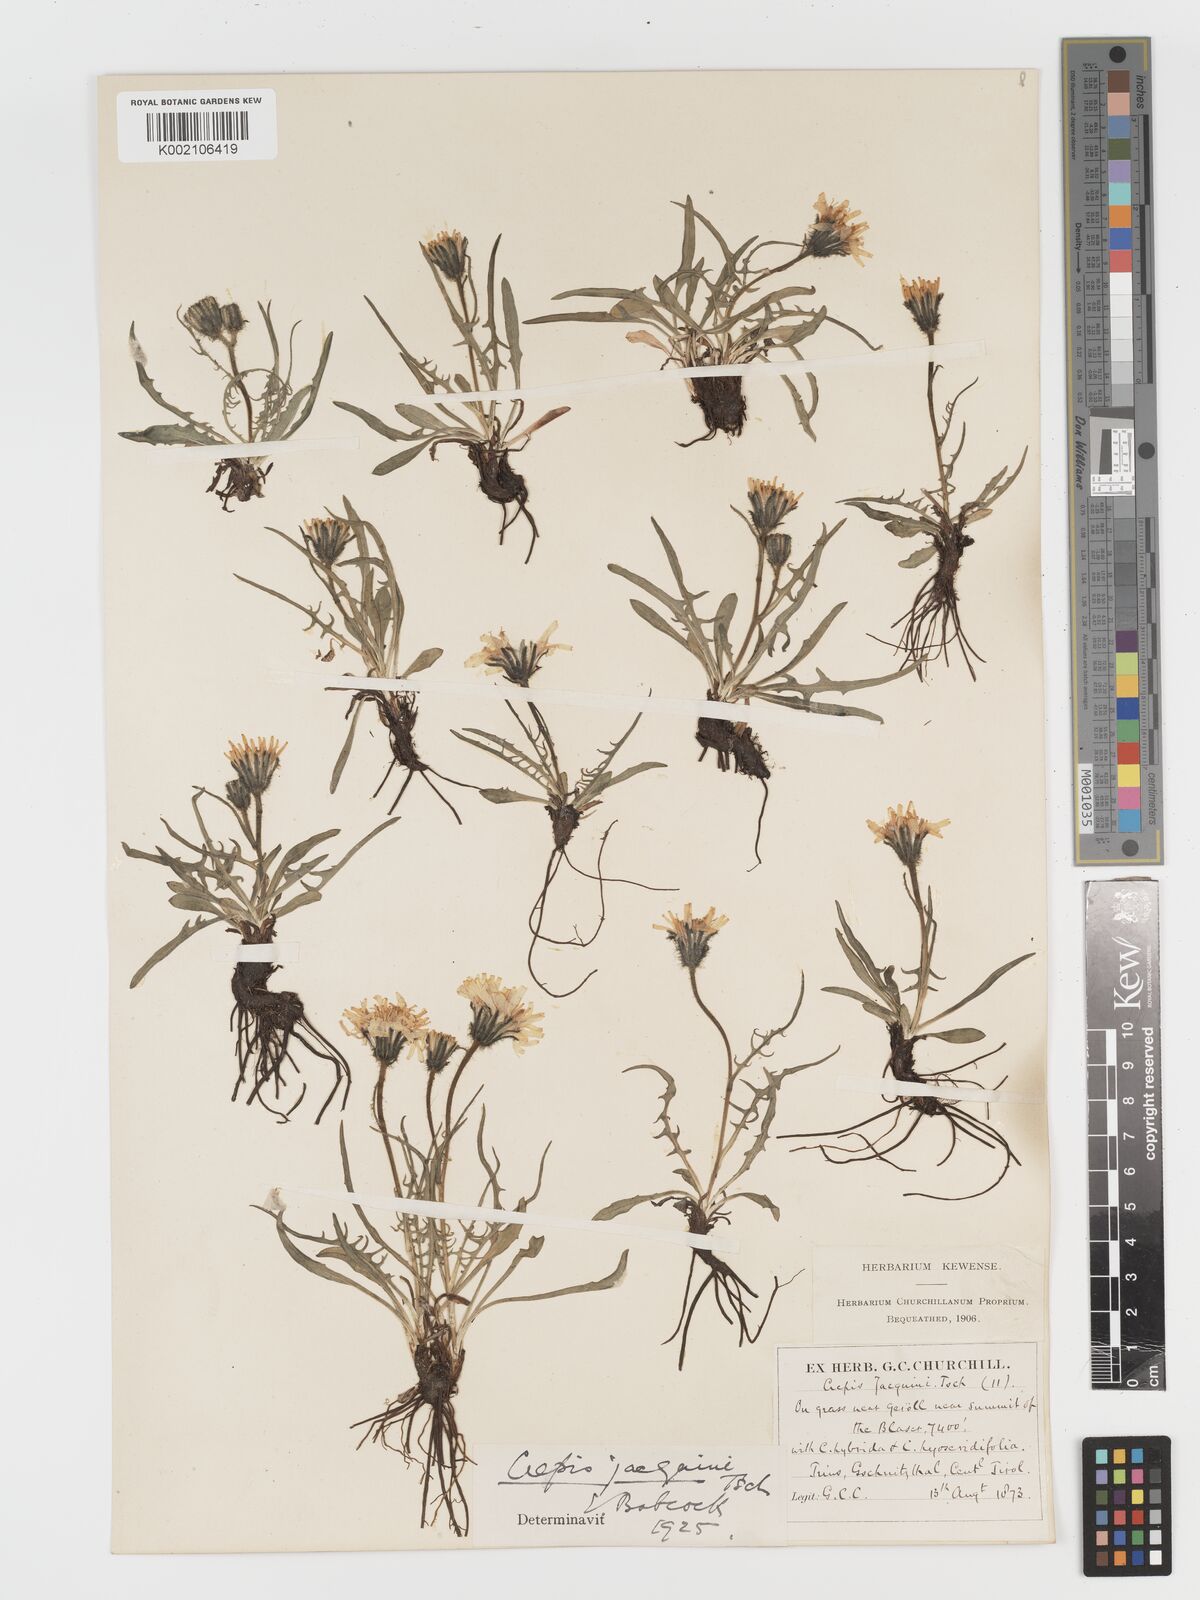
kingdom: Plantae
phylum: Tracheophyta
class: Magnoliopsida
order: Asterales
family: Asteraceae
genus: Crepis
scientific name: Crepis jacquinii
